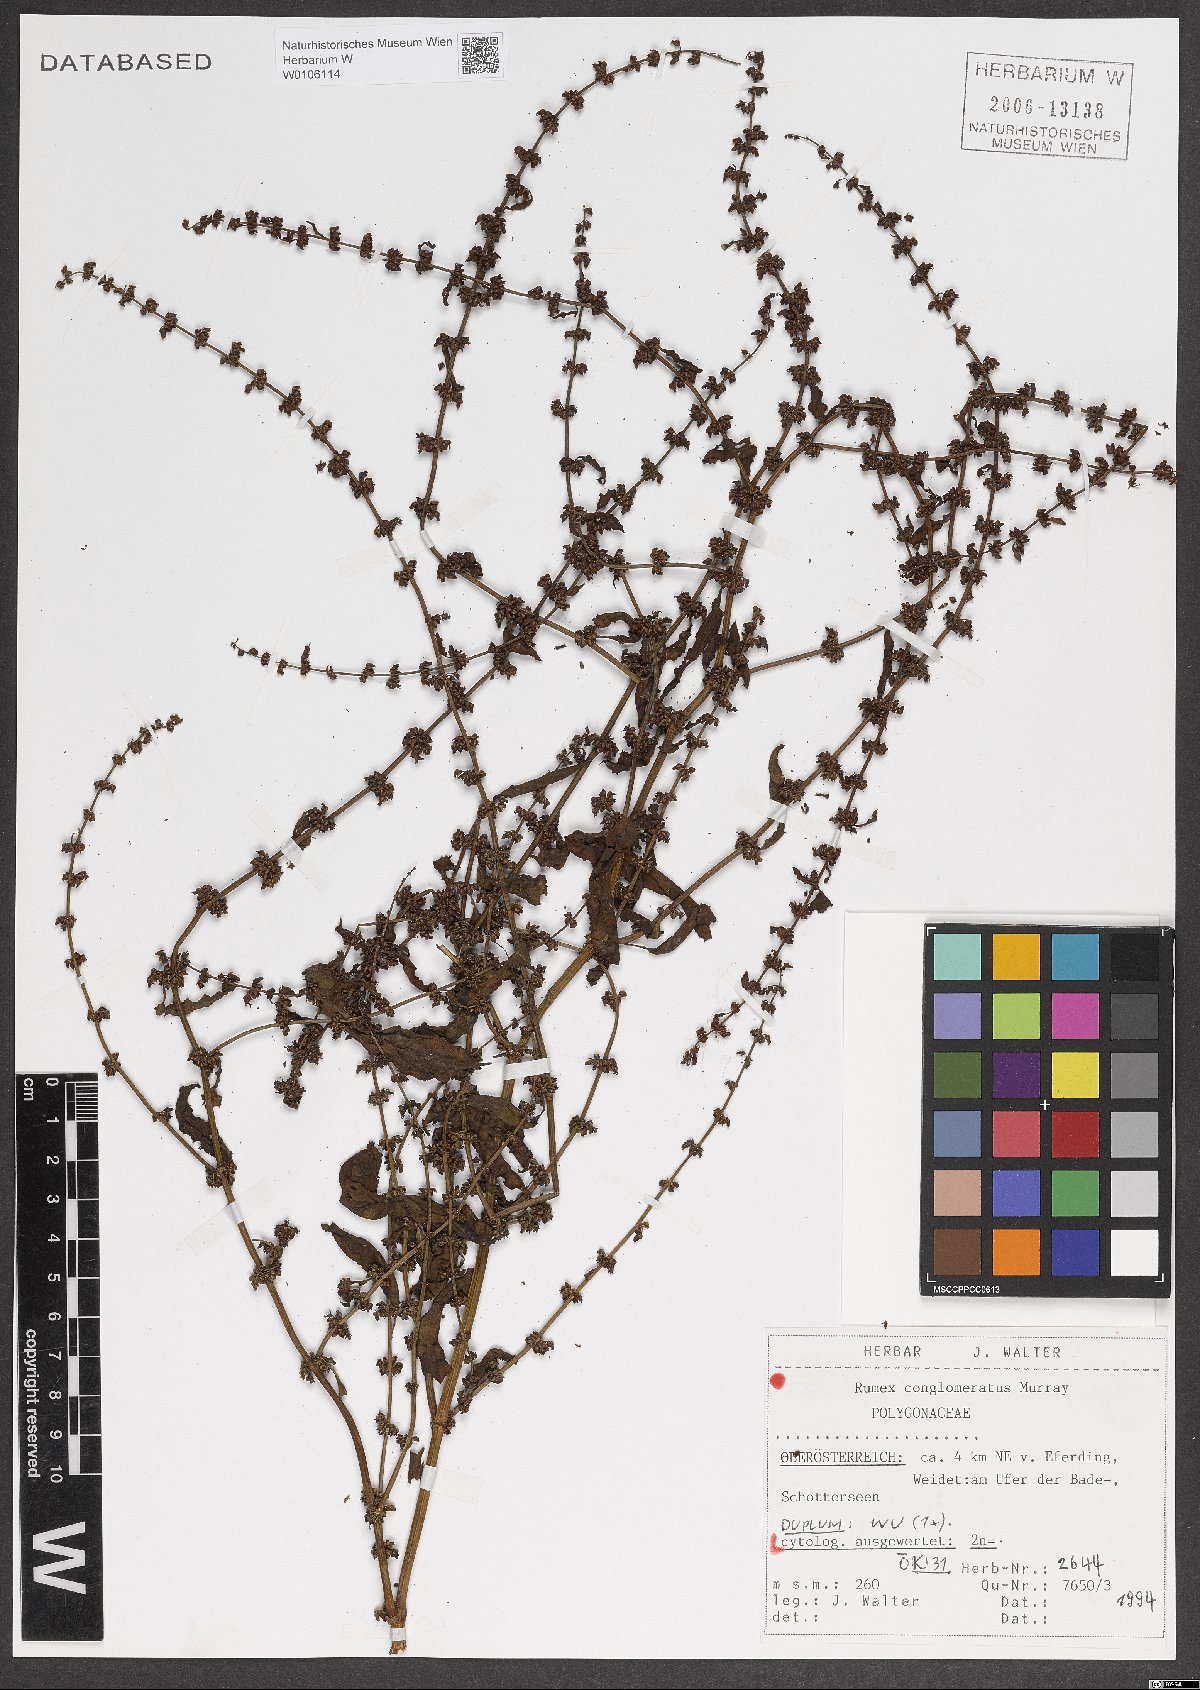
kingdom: Plantae
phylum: Tracheophyta
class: Magnoliopsida
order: Caryophyllales
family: Polygonaceae
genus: Rumex
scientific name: Rumex conglomeratus
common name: Clustered dock
